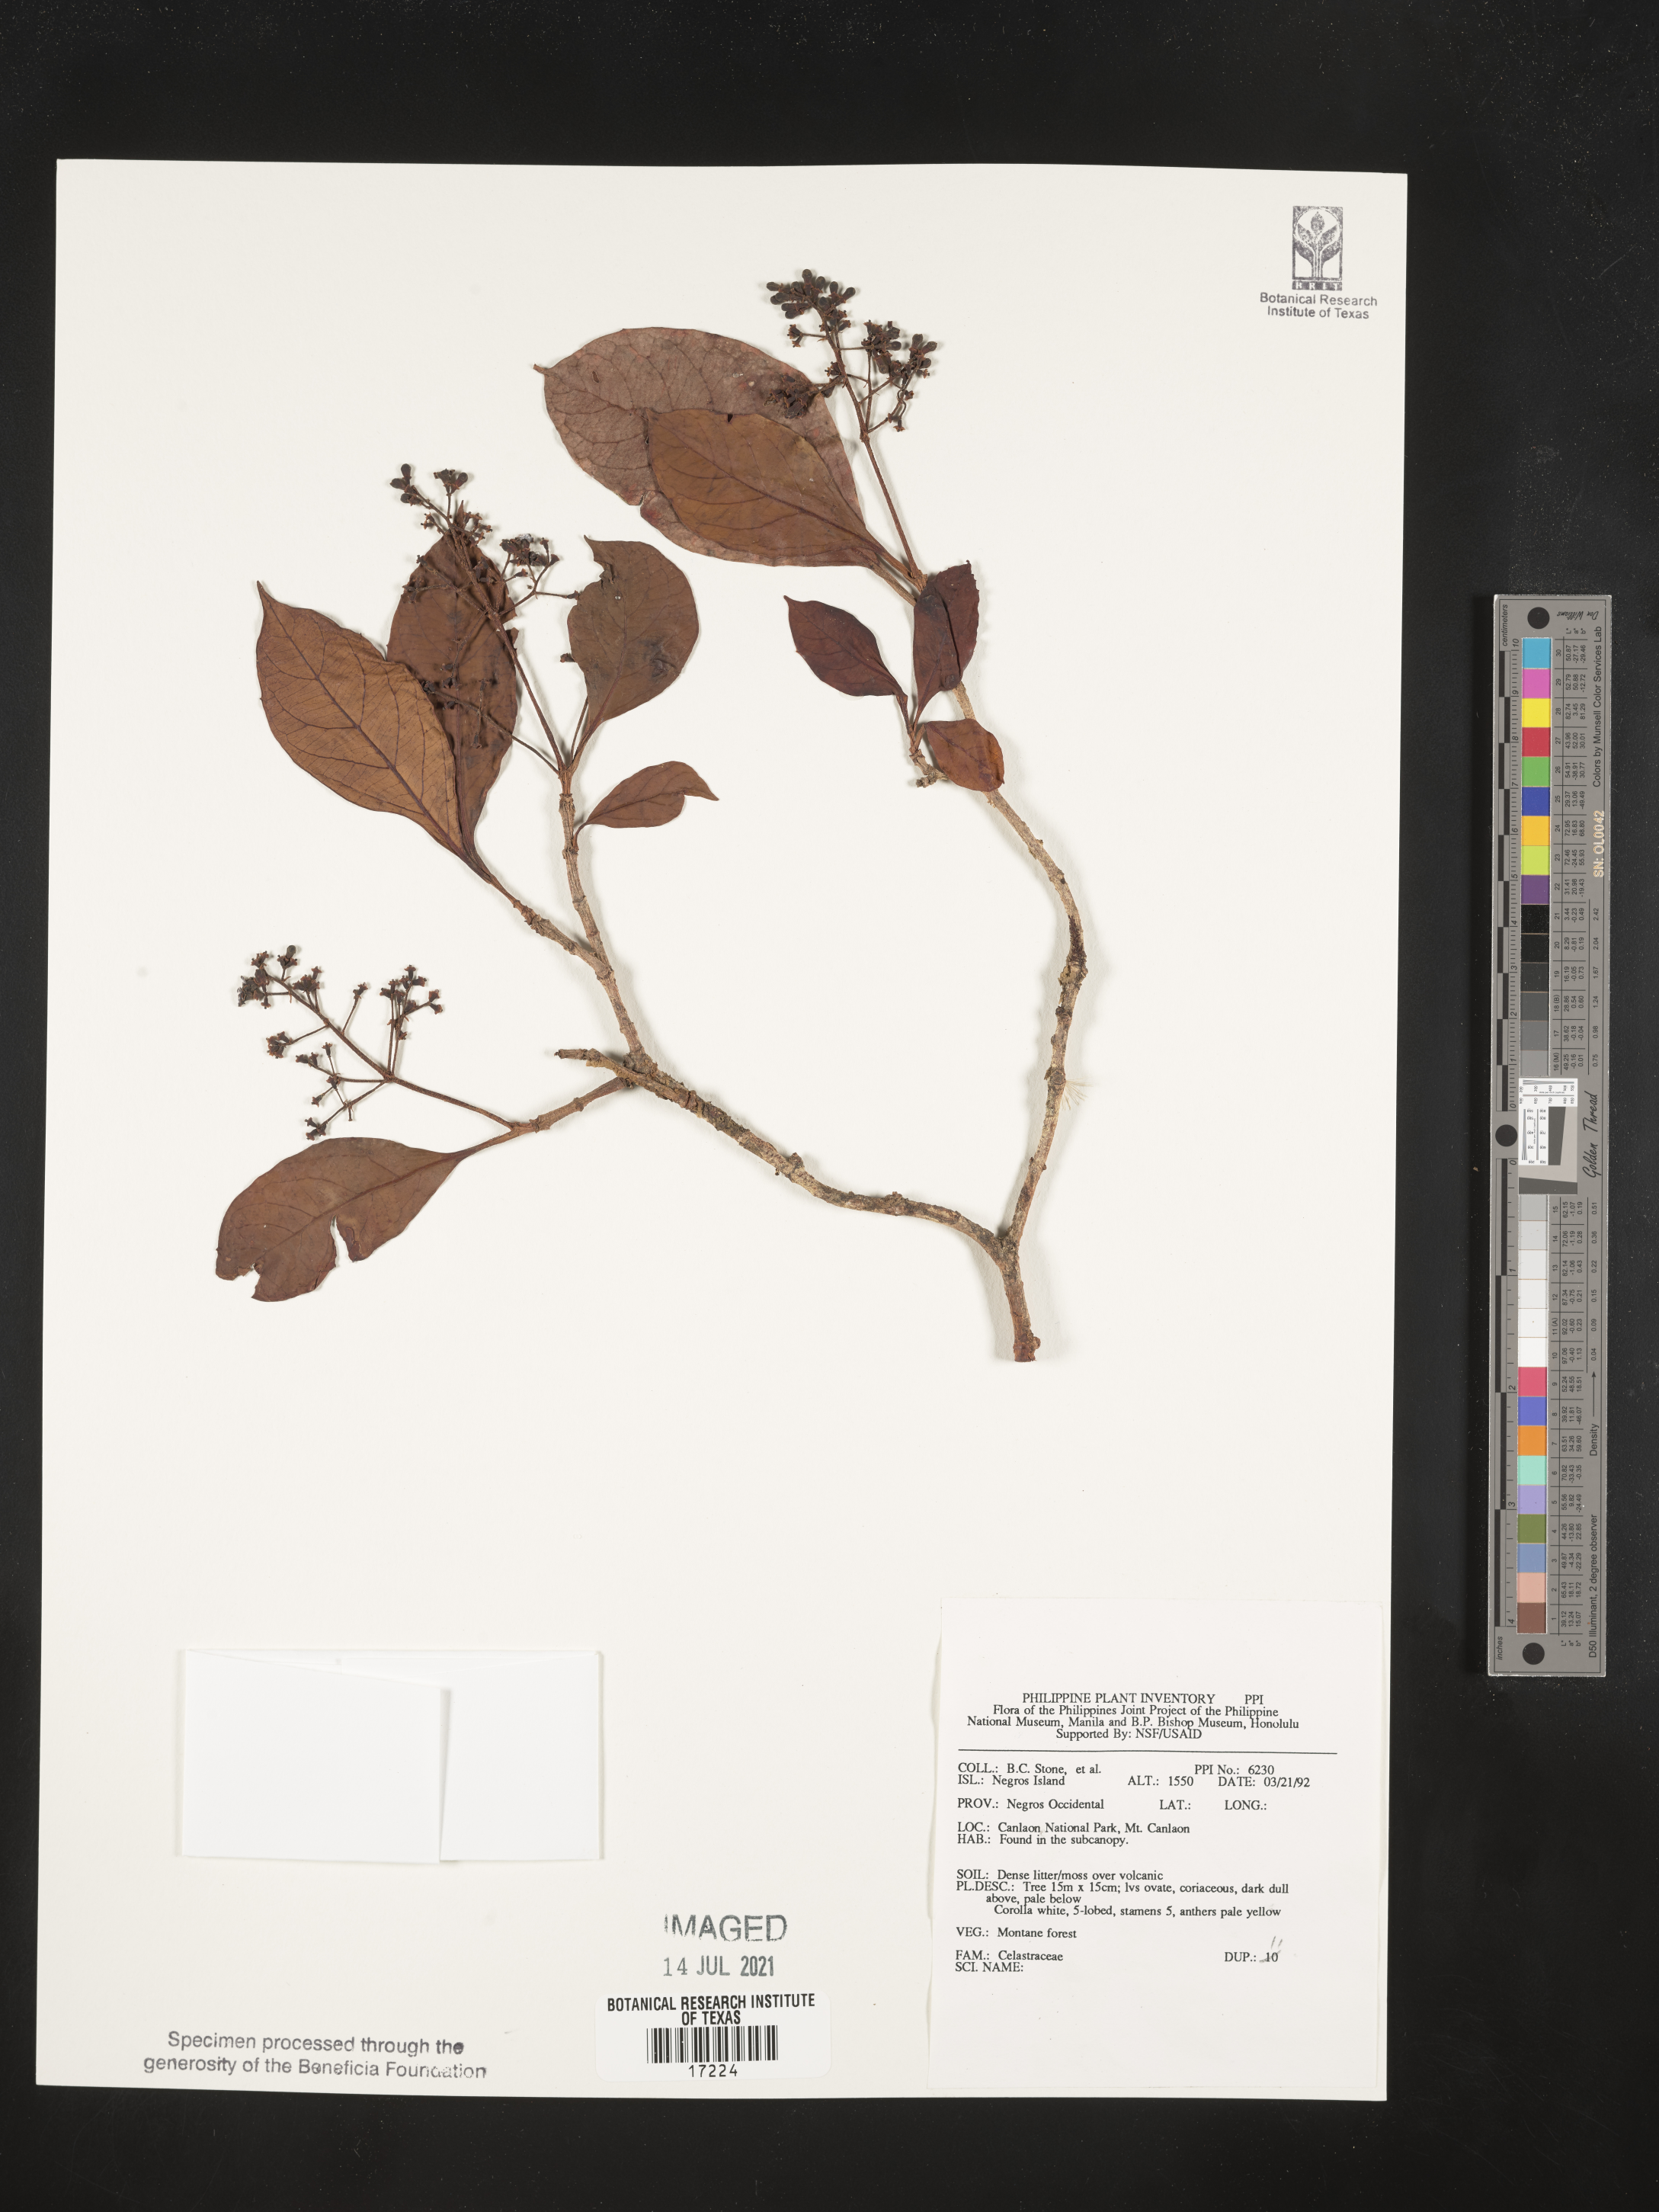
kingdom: Plantae
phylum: Tracheophyta
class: Magnoliopsida
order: Celastrales
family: Celastraceae
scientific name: Celastraceae
